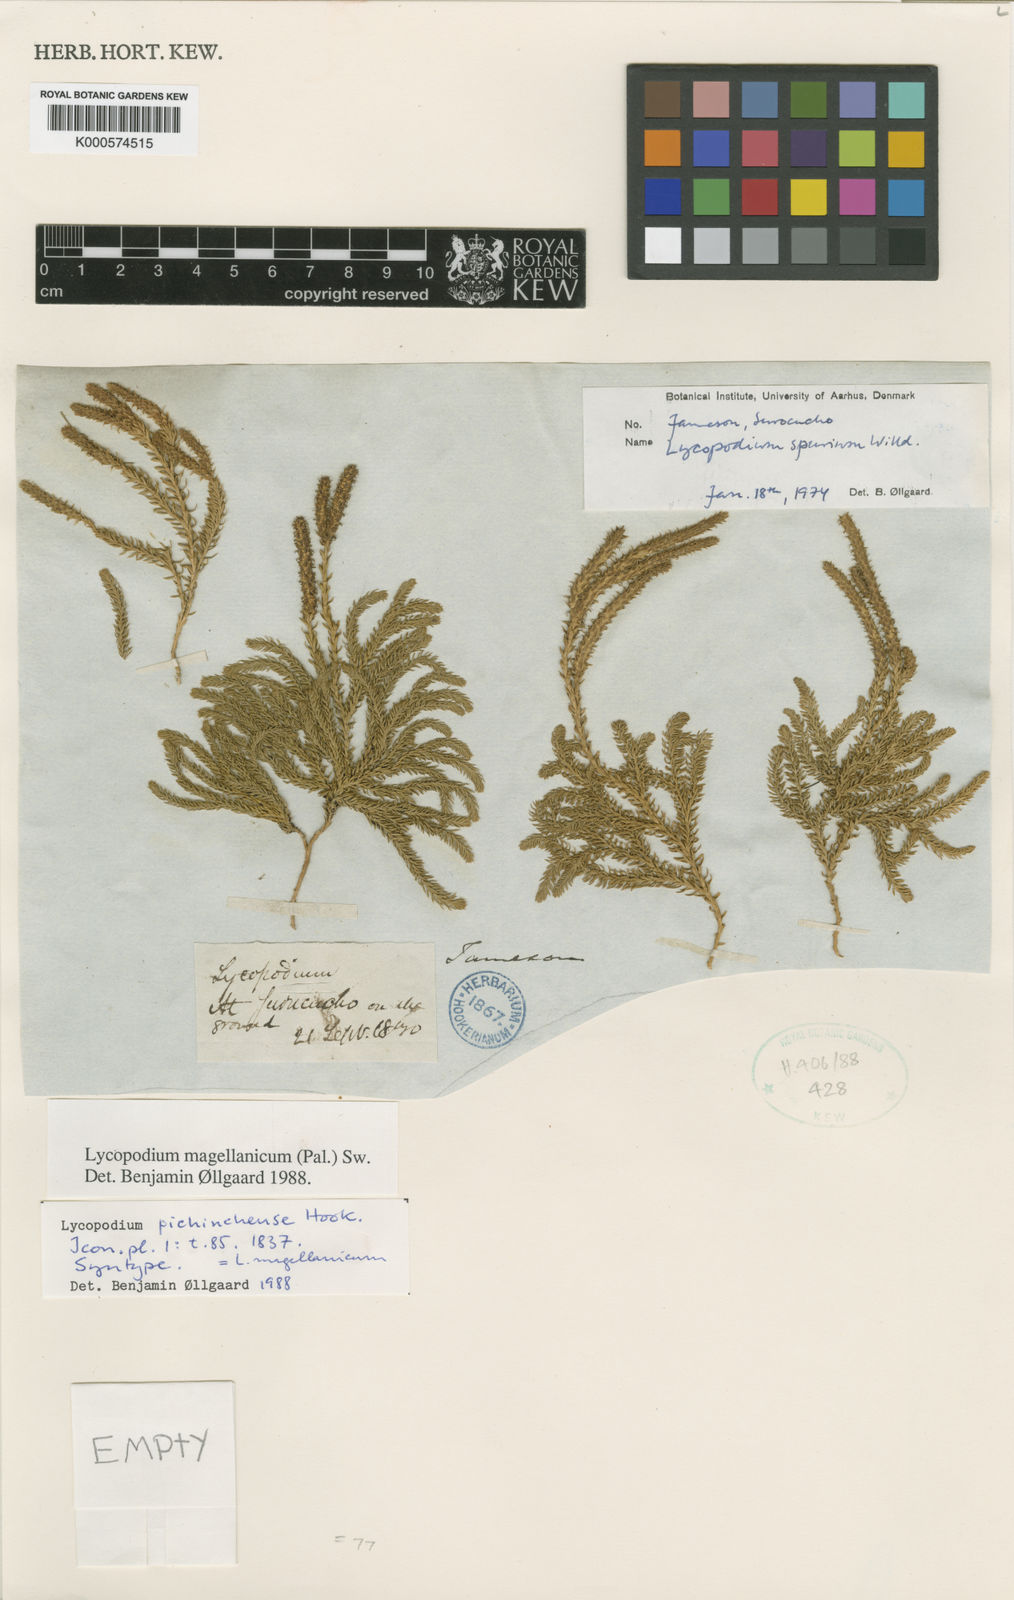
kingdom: Plantae
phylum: Tracheophyta
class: Lycopodiopsida
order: Lycopodiales
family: Lycopodiaceae
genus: Austrolycopodium
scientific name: Austrolycopodium magellanicum
